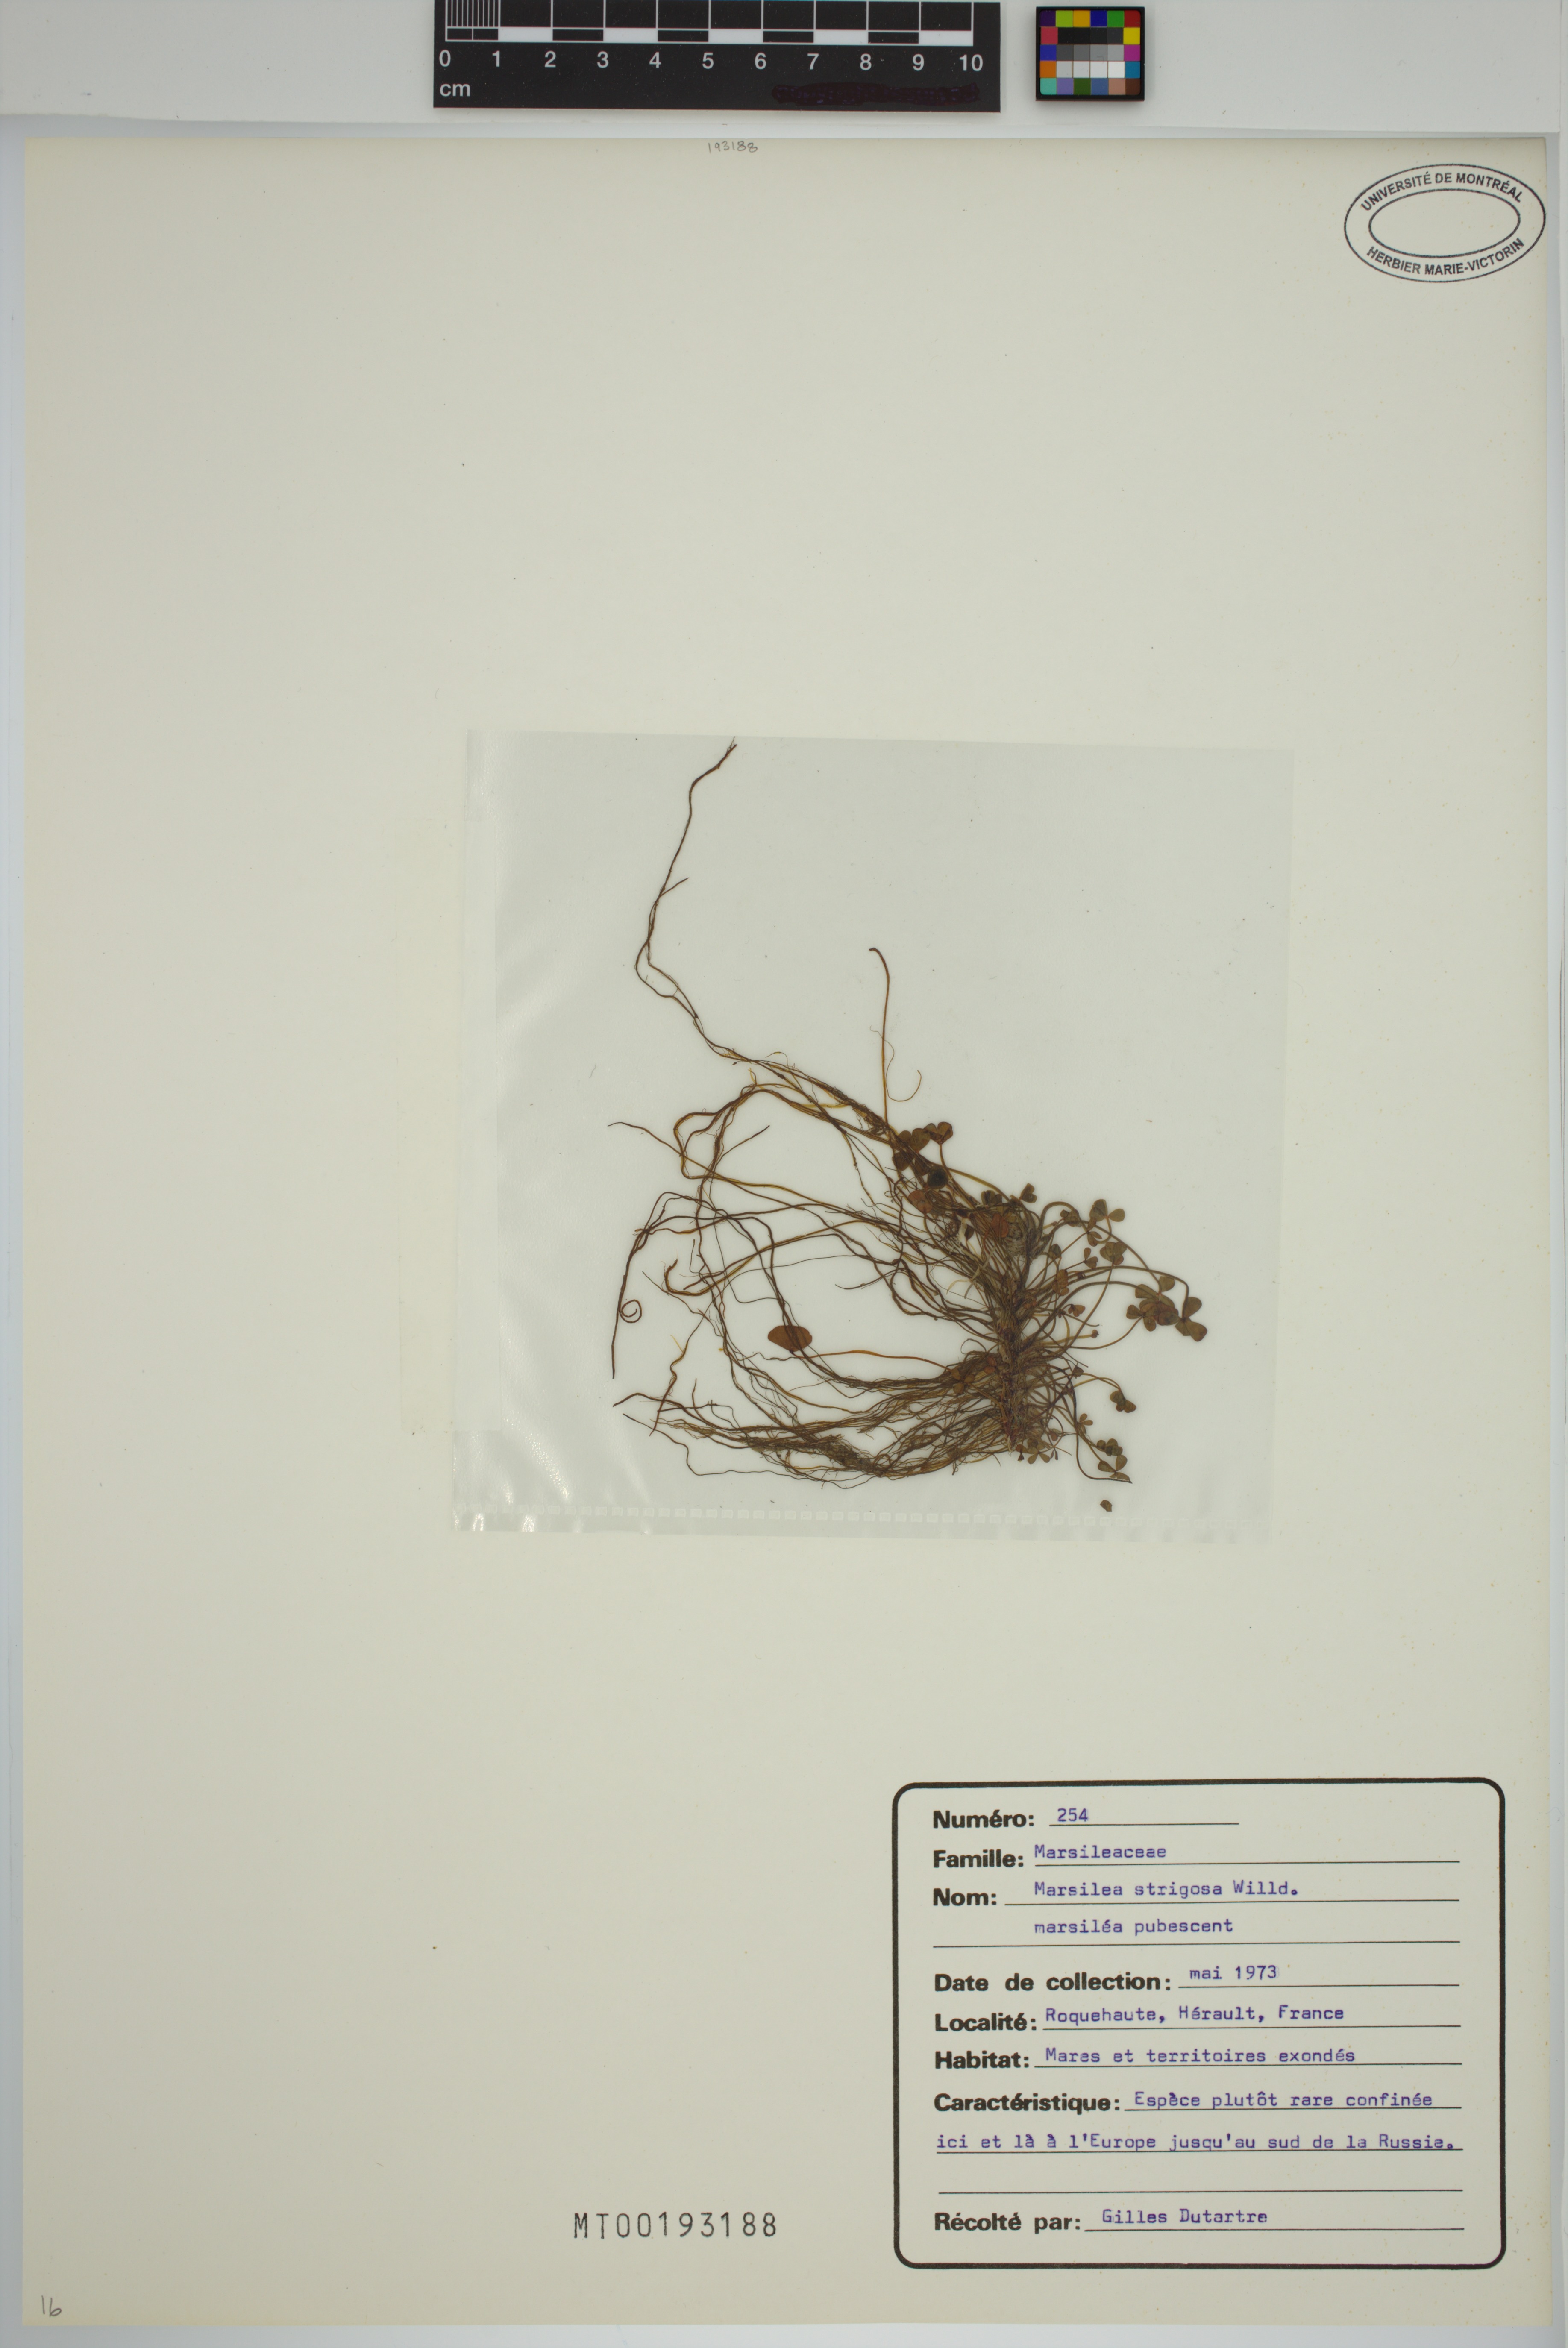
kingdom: Plantae
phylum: Tracheophyta
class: Polypodiopsida
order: Salviniales
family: Marsileaceae
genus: Marsilea
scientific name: Marsilea strigosa
